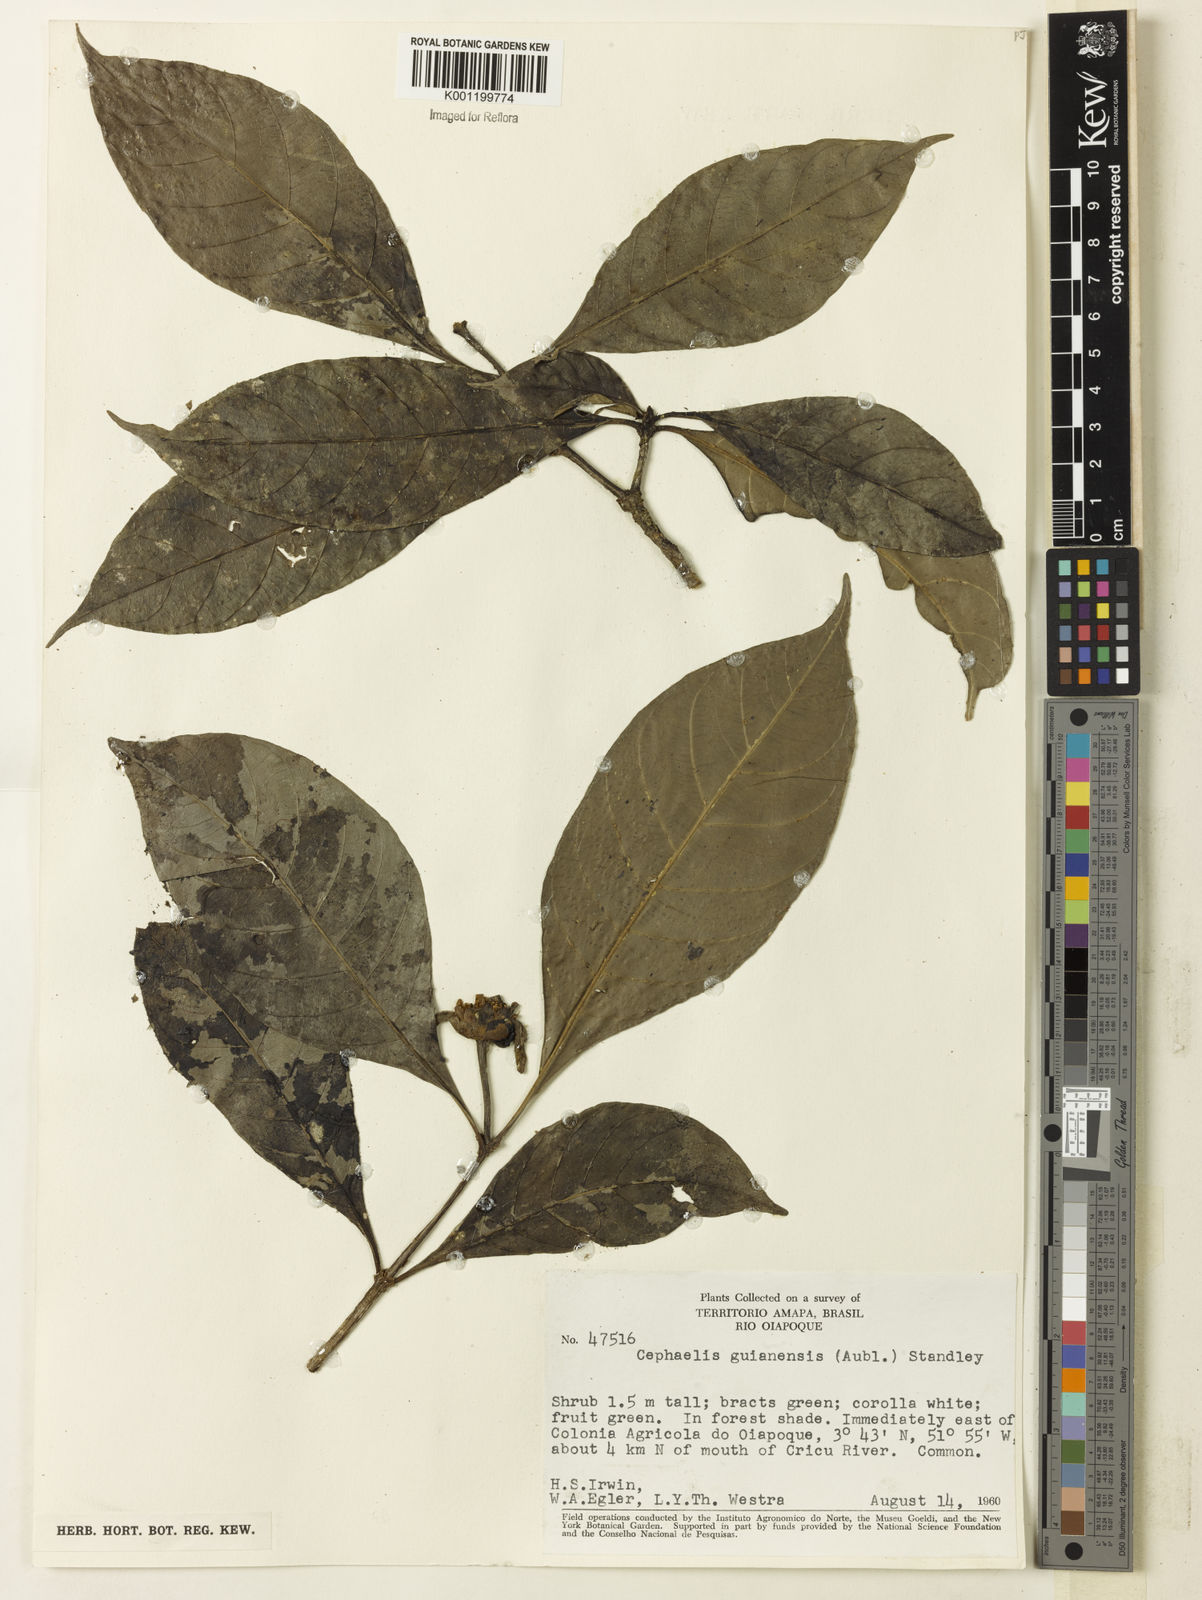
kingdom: Plantae
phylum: Tracheophyta
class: Magnoliopsida
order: Gentianales
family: Rubiaceae
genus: Carapichea
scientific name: Carapichea guianensis
